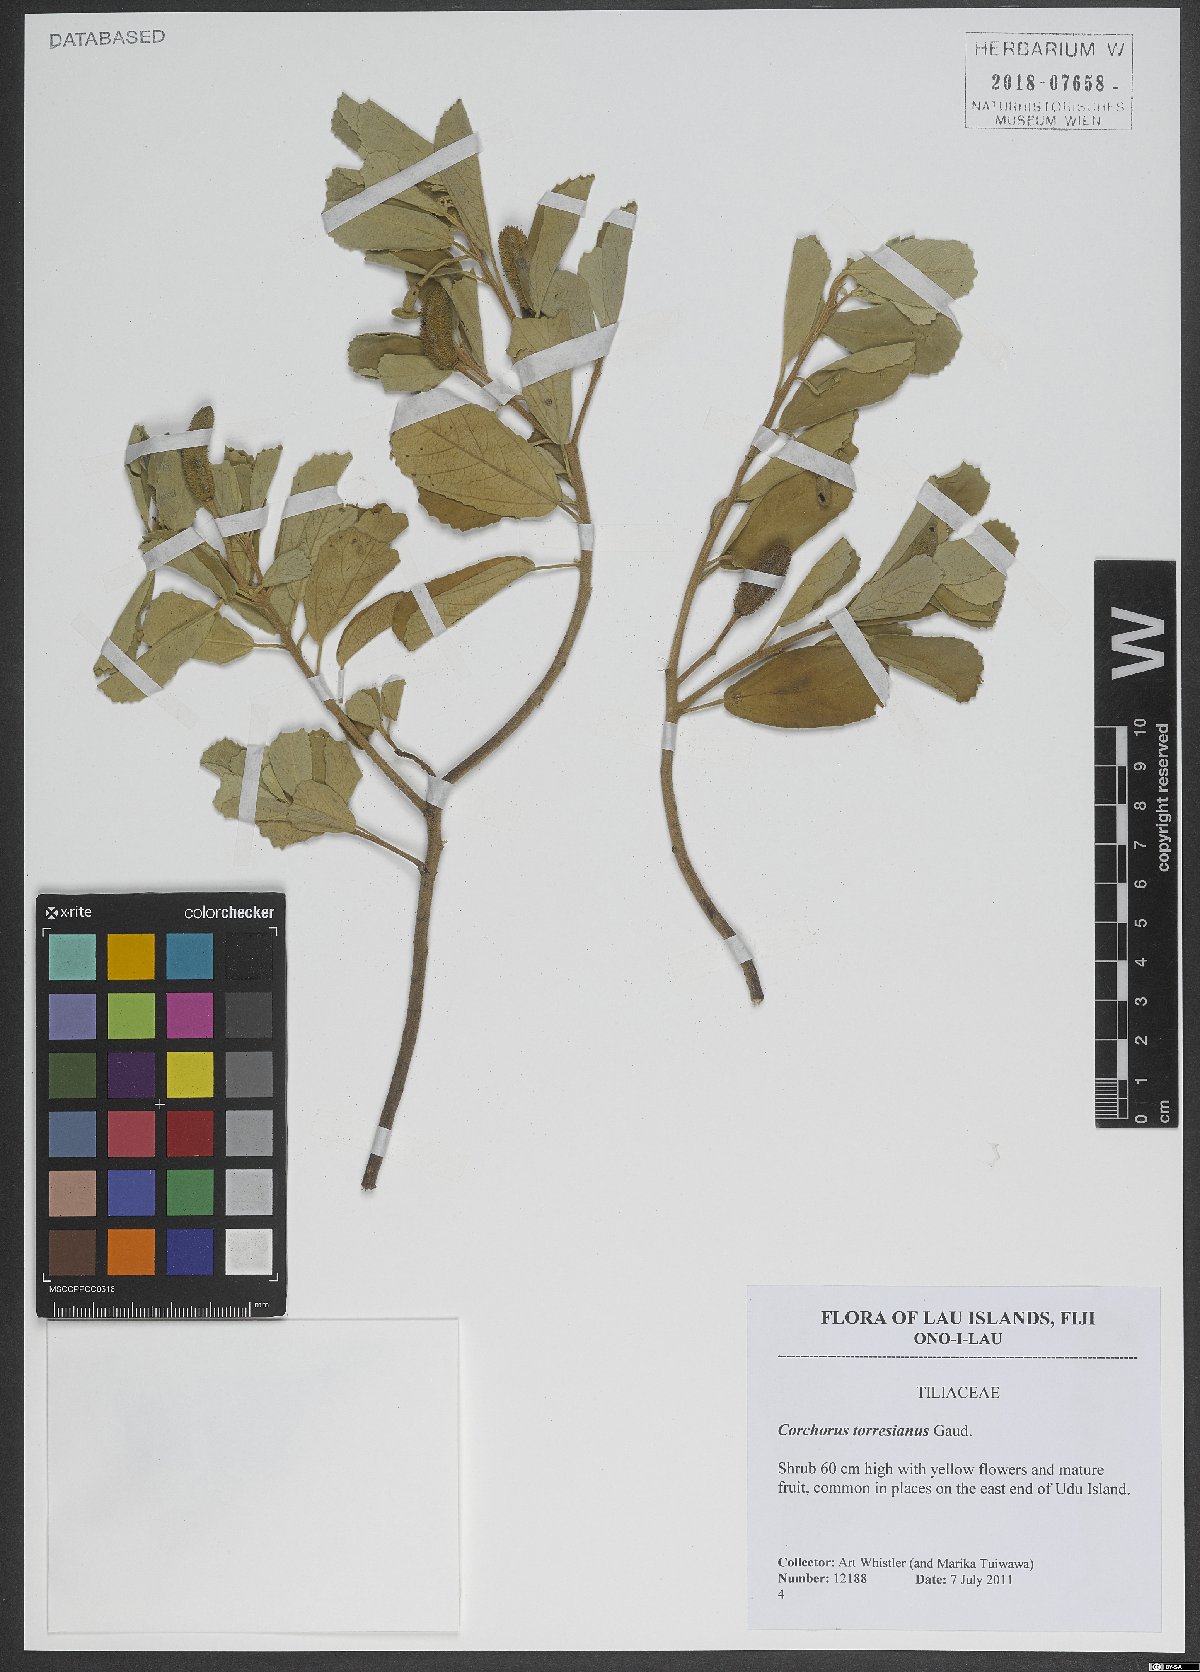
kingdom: Plantae
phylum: Tracheophyta
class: Magnoliopsida
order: Malvales
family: Malvaceae
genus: Corchorus
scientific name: Corchorus torresianus
